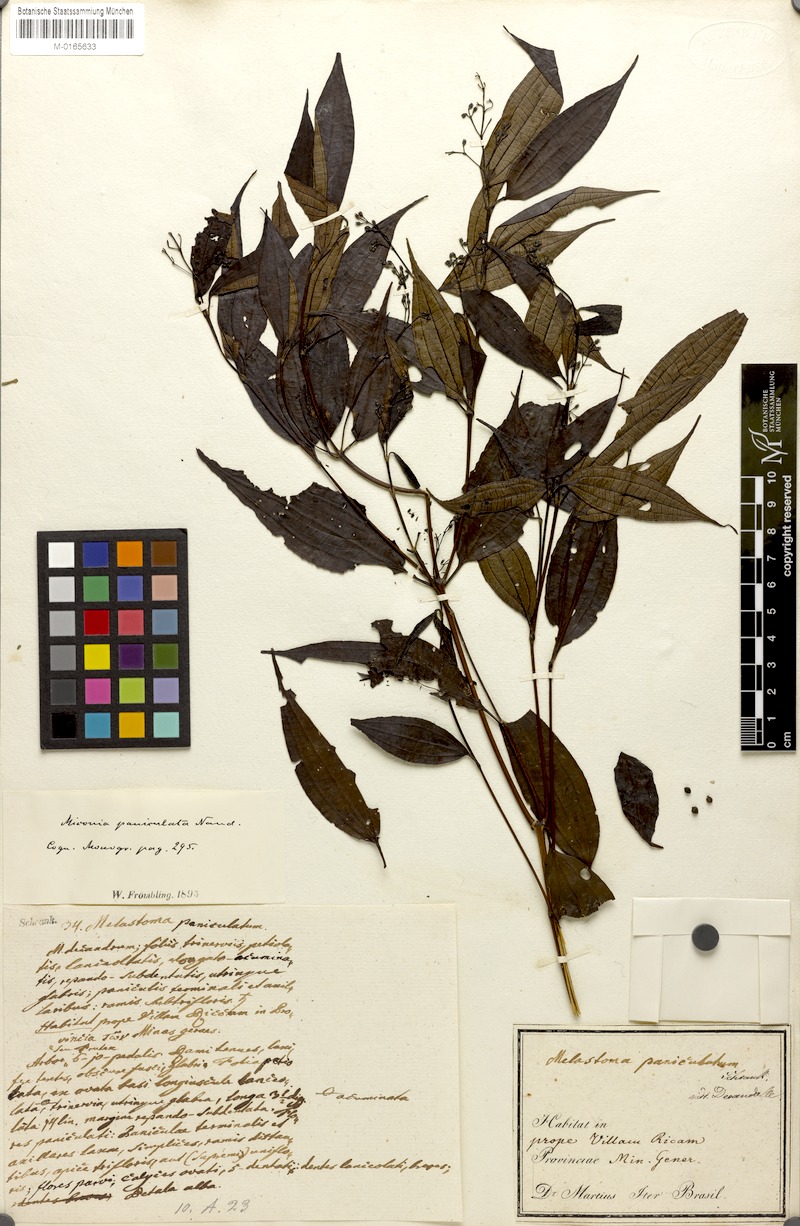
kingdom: Plantae
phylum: Tracheophyta
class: Magnoliopsida
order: Myrtales
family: Melastomataceae
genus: Miconia
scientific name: Miconia paniculata
